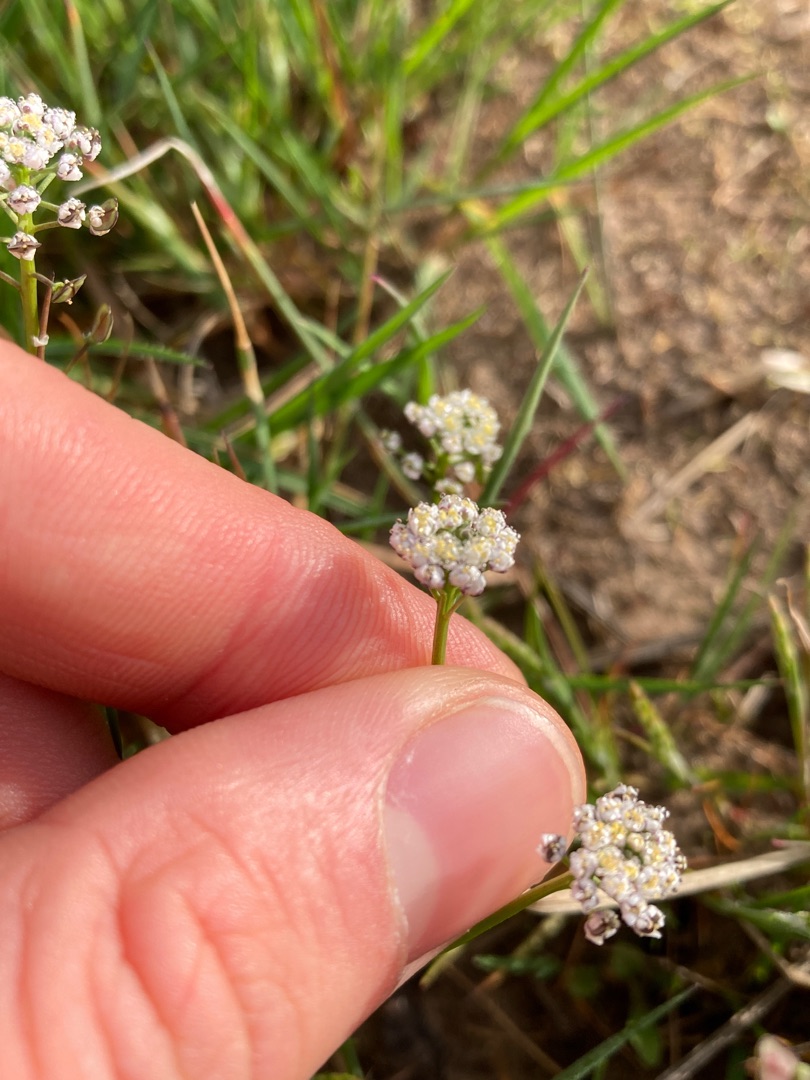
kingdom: Plantae
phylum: Tracheophyta
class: Magnoliopsida
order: Brassicales
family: Brassicaceae
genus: Teesdalia
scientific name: Teesdalia nudicaulis
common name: Flipkrave
